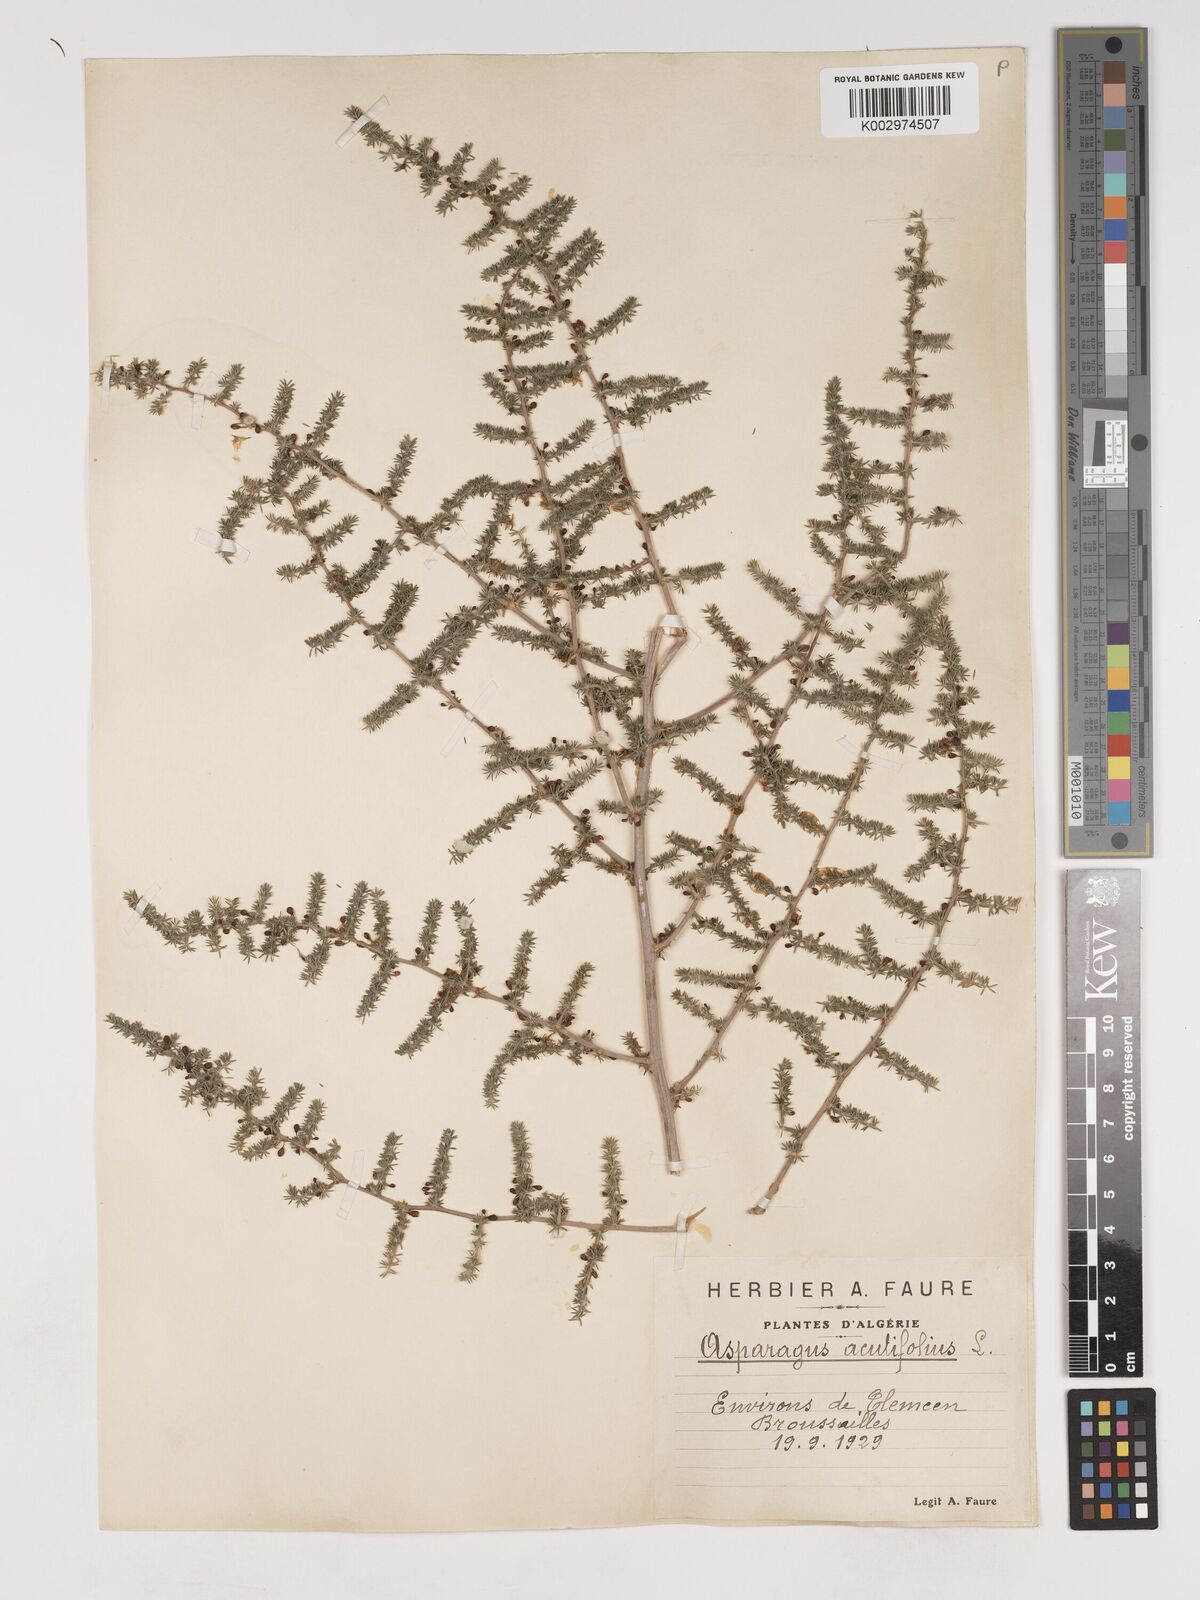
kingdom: Plantae
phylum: Tracheophyta
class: Liliopsida
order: Asparagales
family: Asparagaceae
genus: Asparagus
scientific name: Asparagus acutifolius
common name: Wild asparagus
